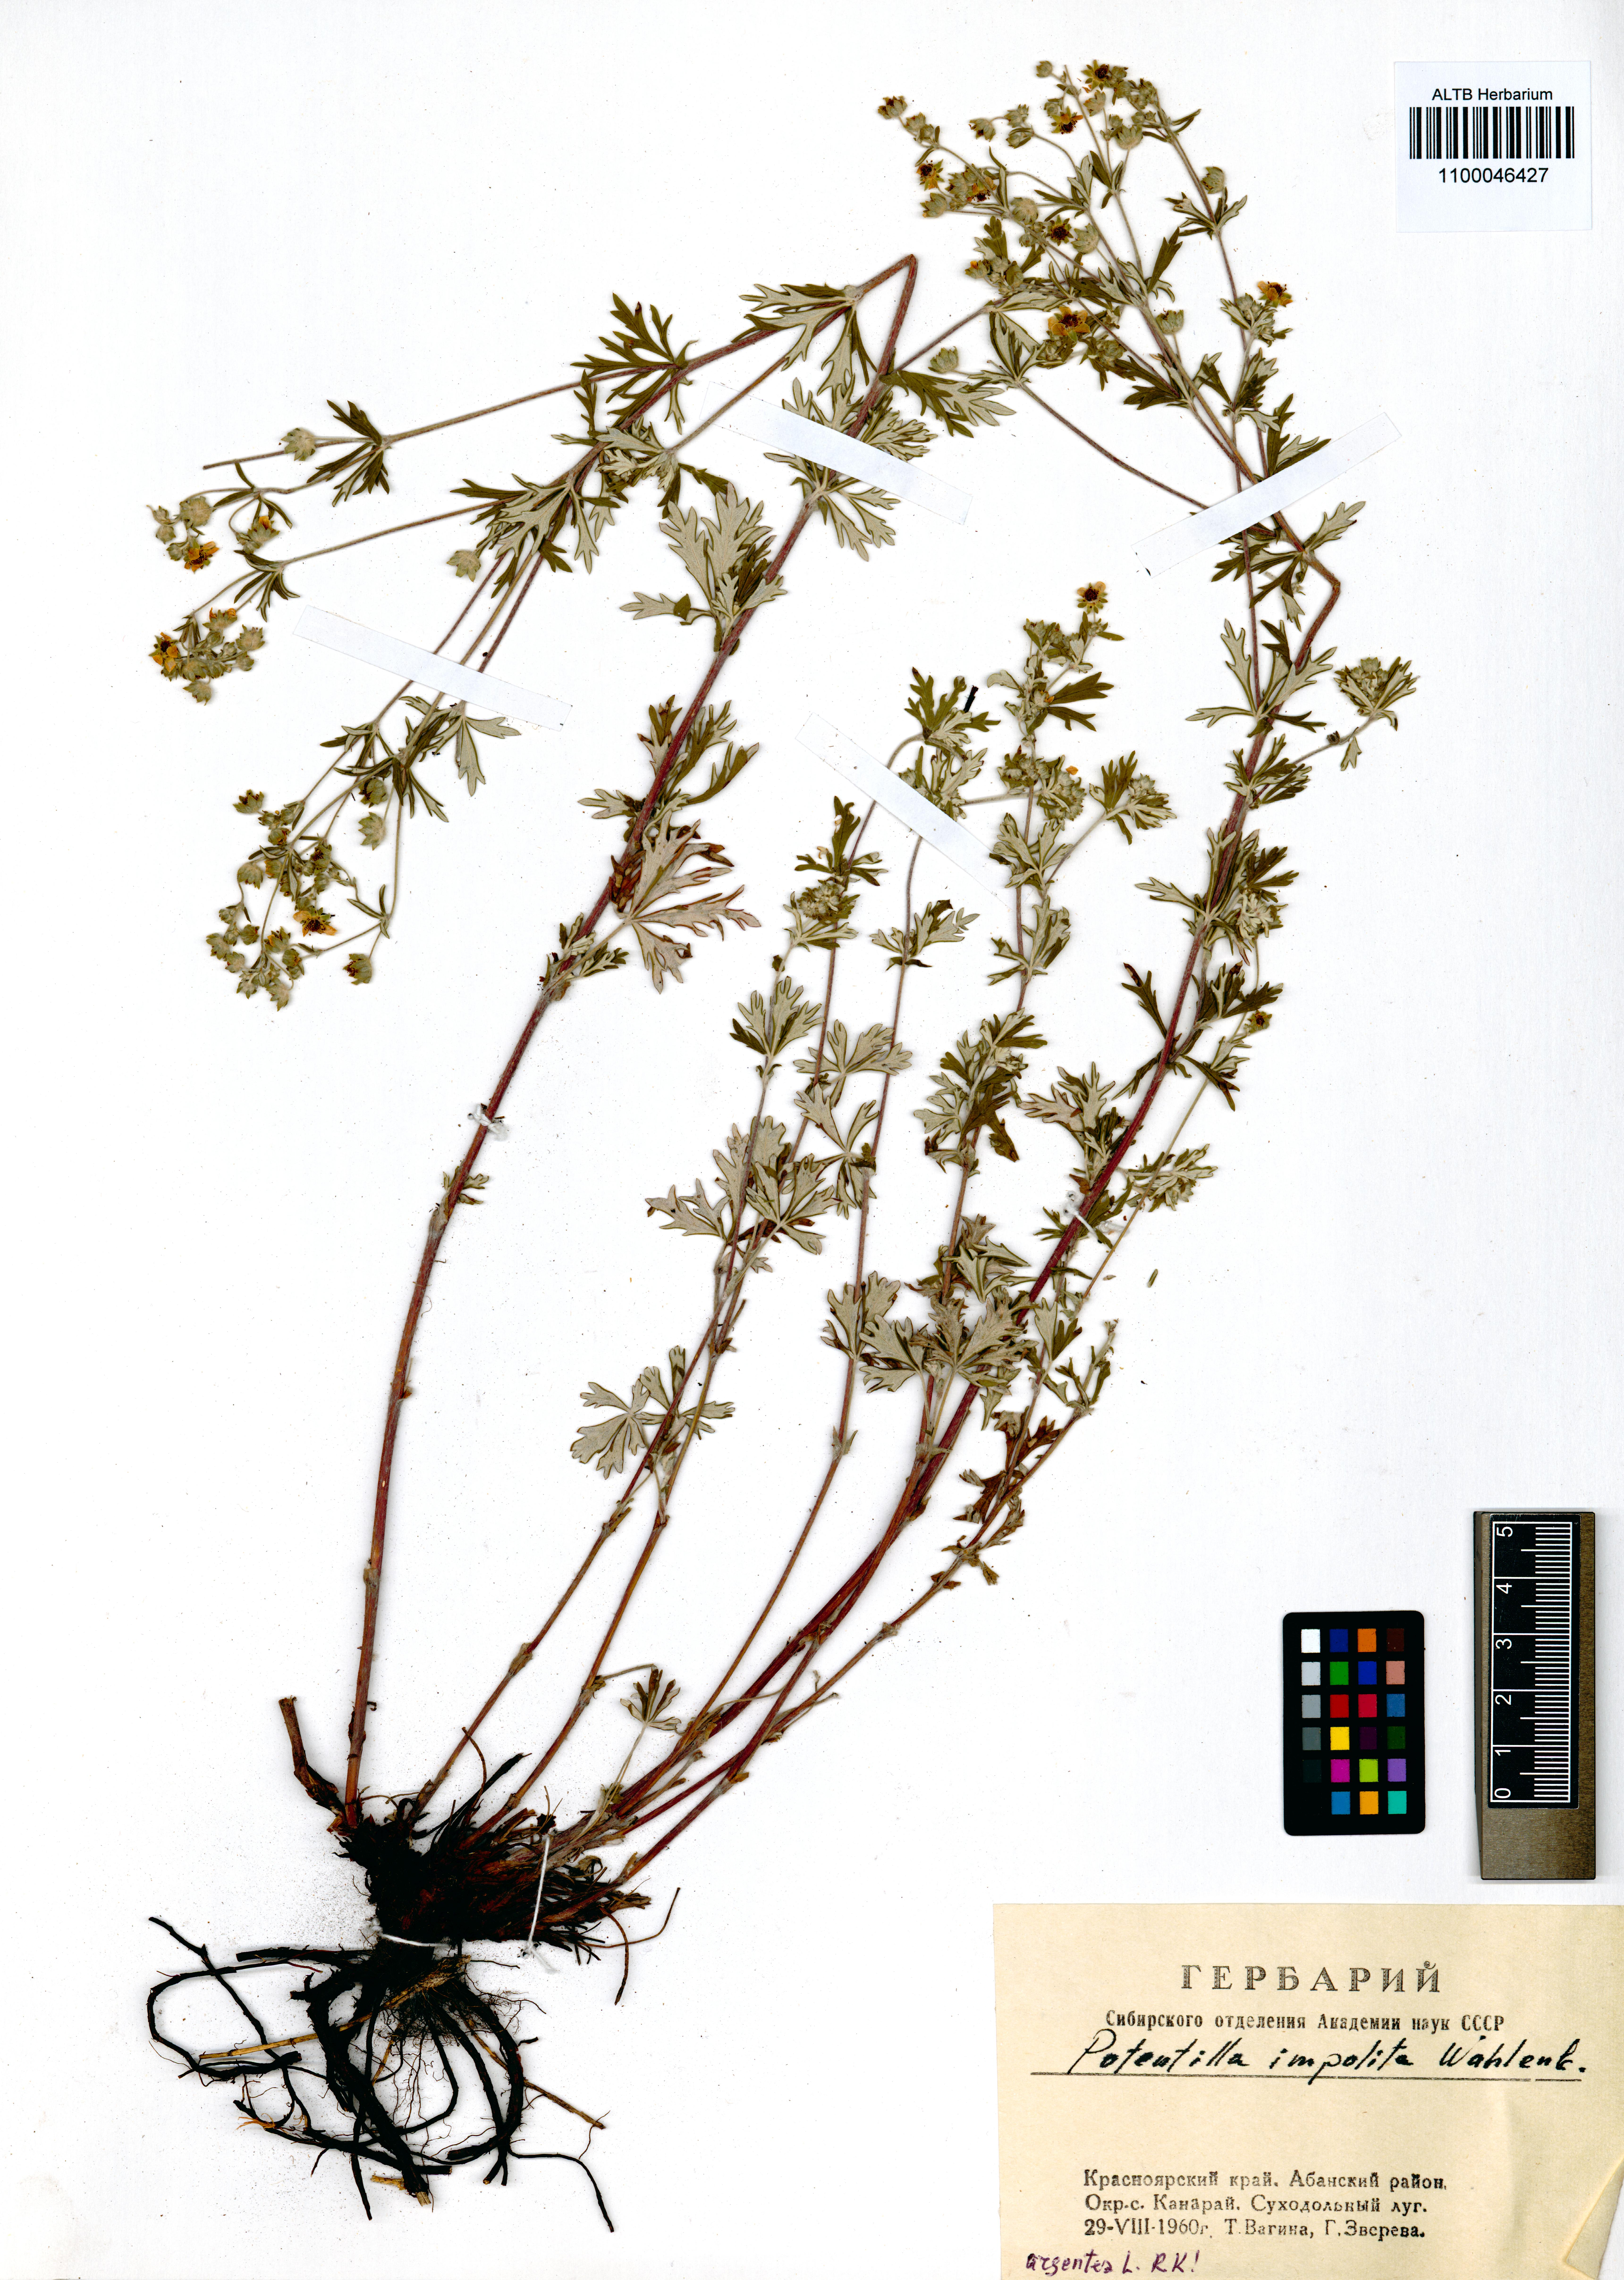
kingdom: Plantae
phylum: Tracheophyta
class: Magnoliopsida
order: Rosales
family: Rosaceae
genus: Potentilla
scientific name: Potentilla argentea
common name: Hoary cinquefoil
